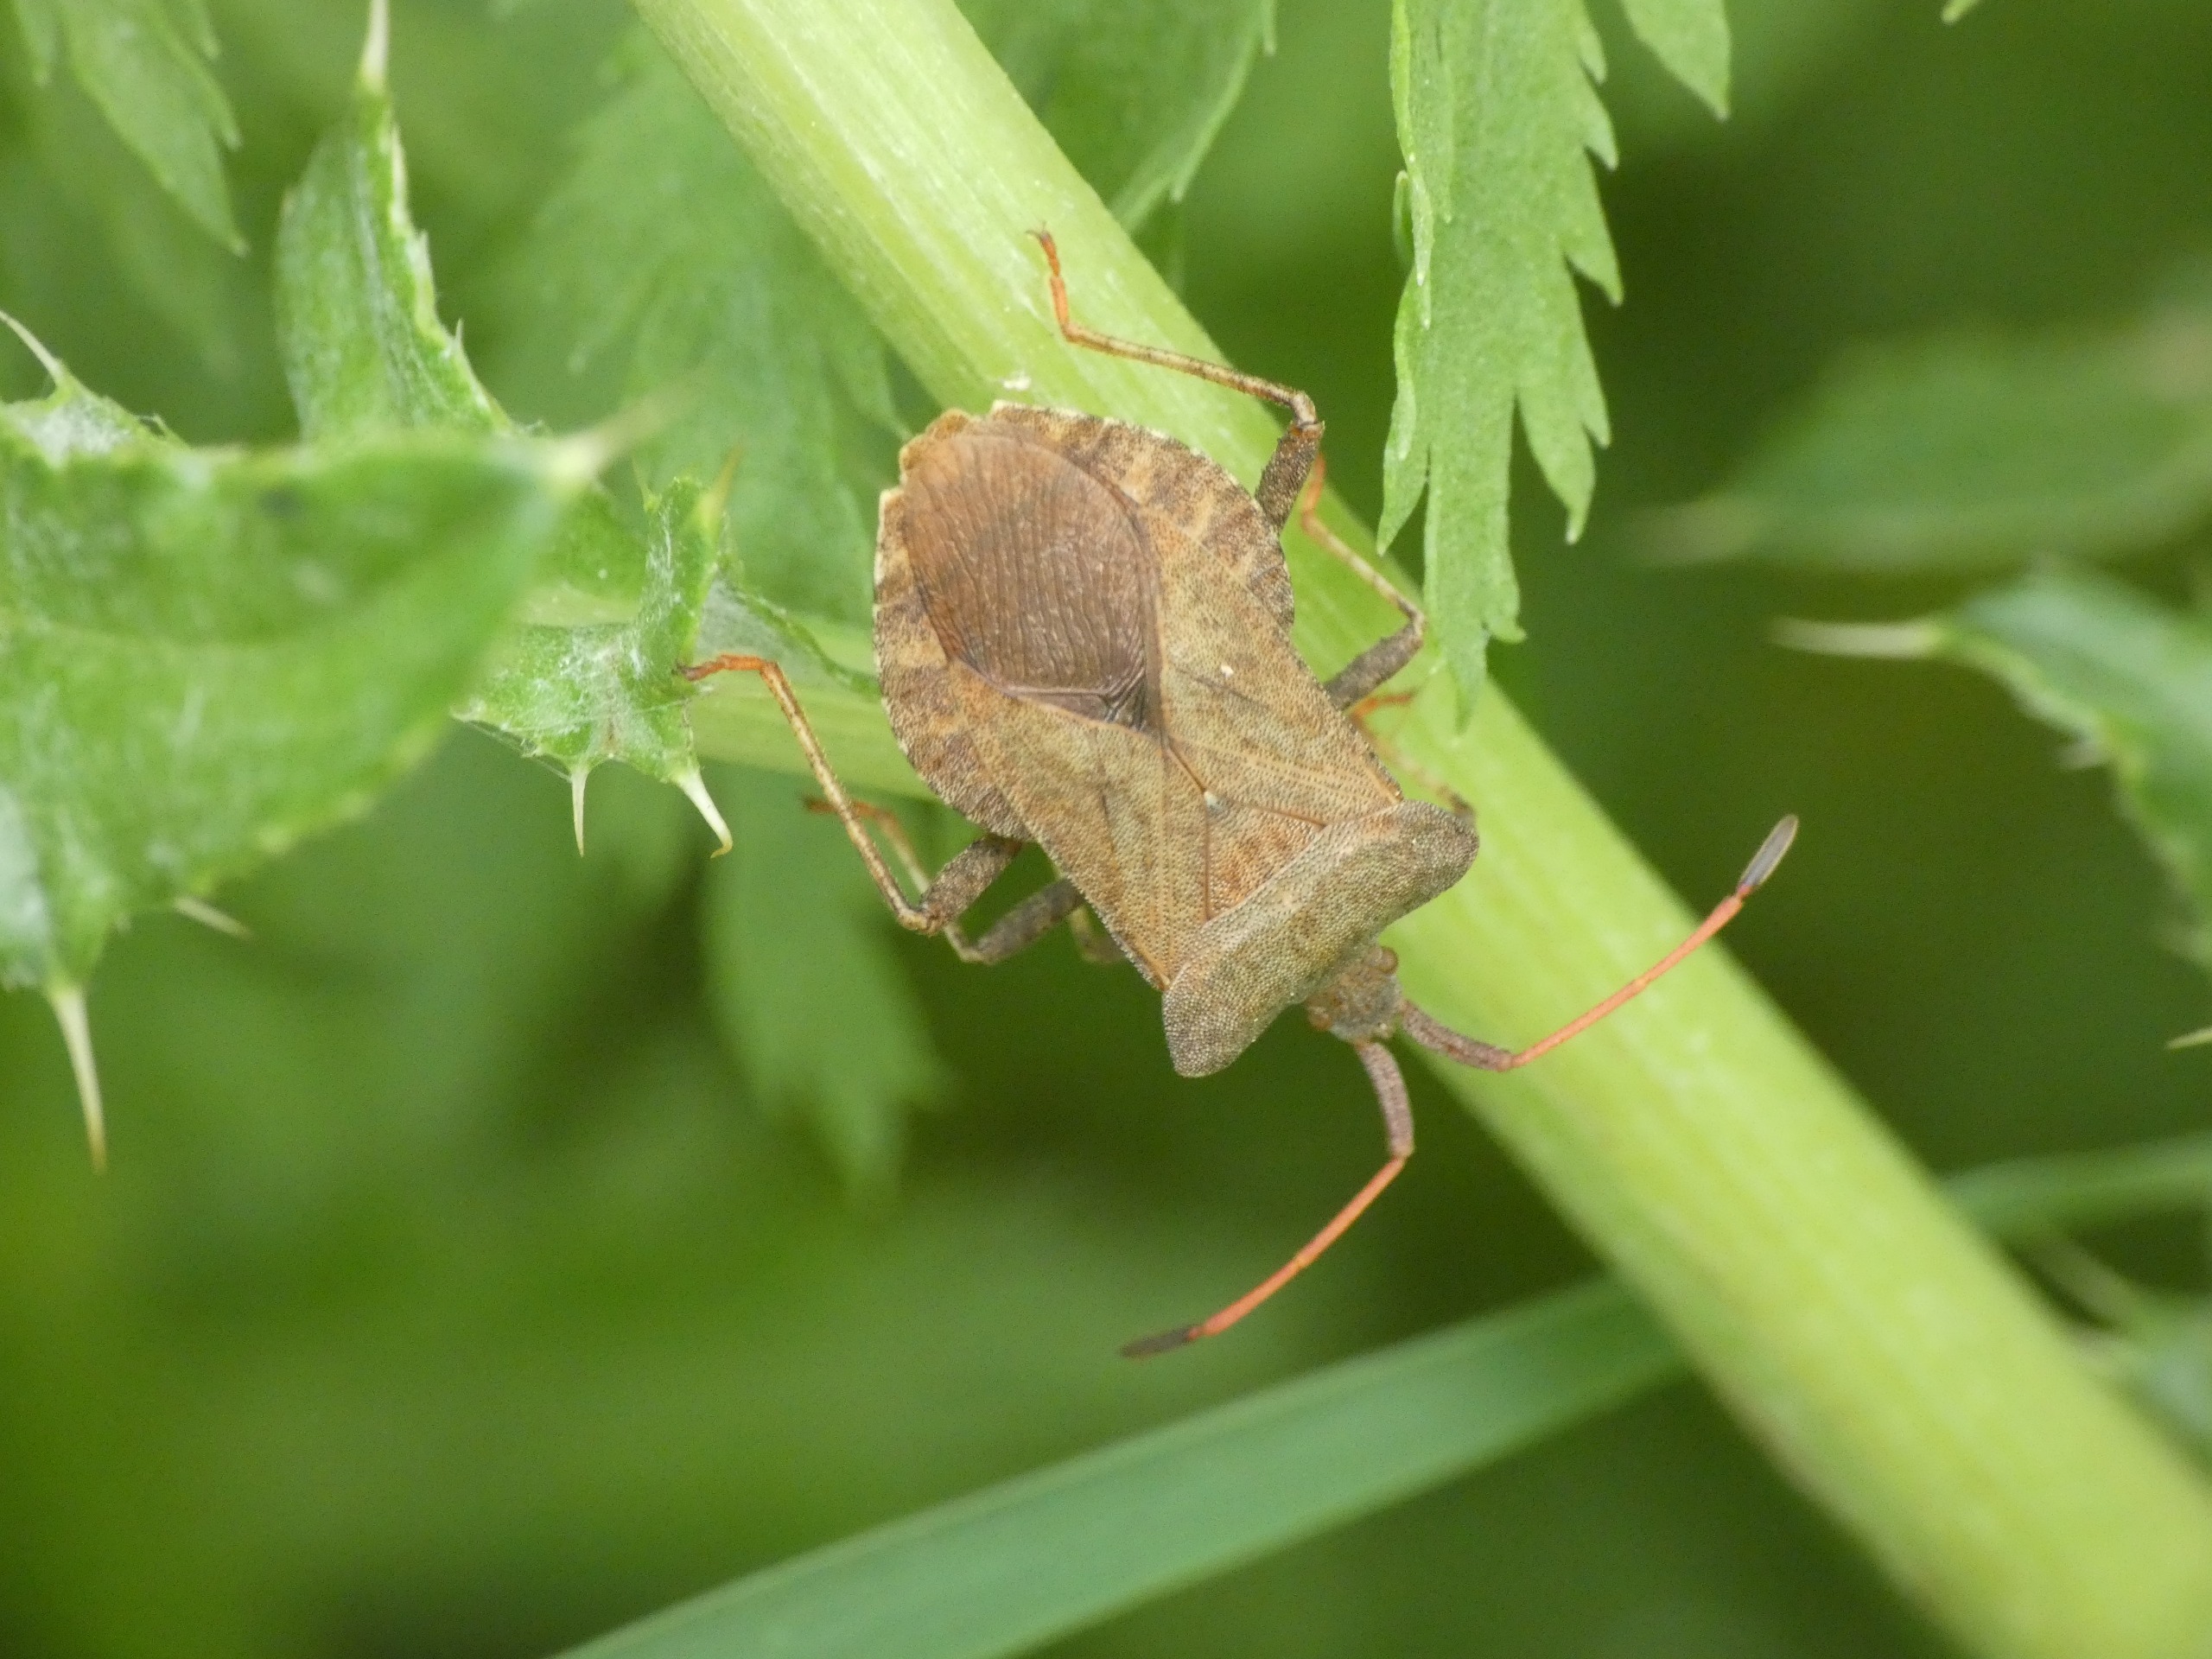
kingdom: Animalia
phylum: Arthropoda
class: Insecta
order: Hemiptera
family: Coreidae
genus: Coreus
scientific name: Coreus marginatus
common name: Skræppetæge
